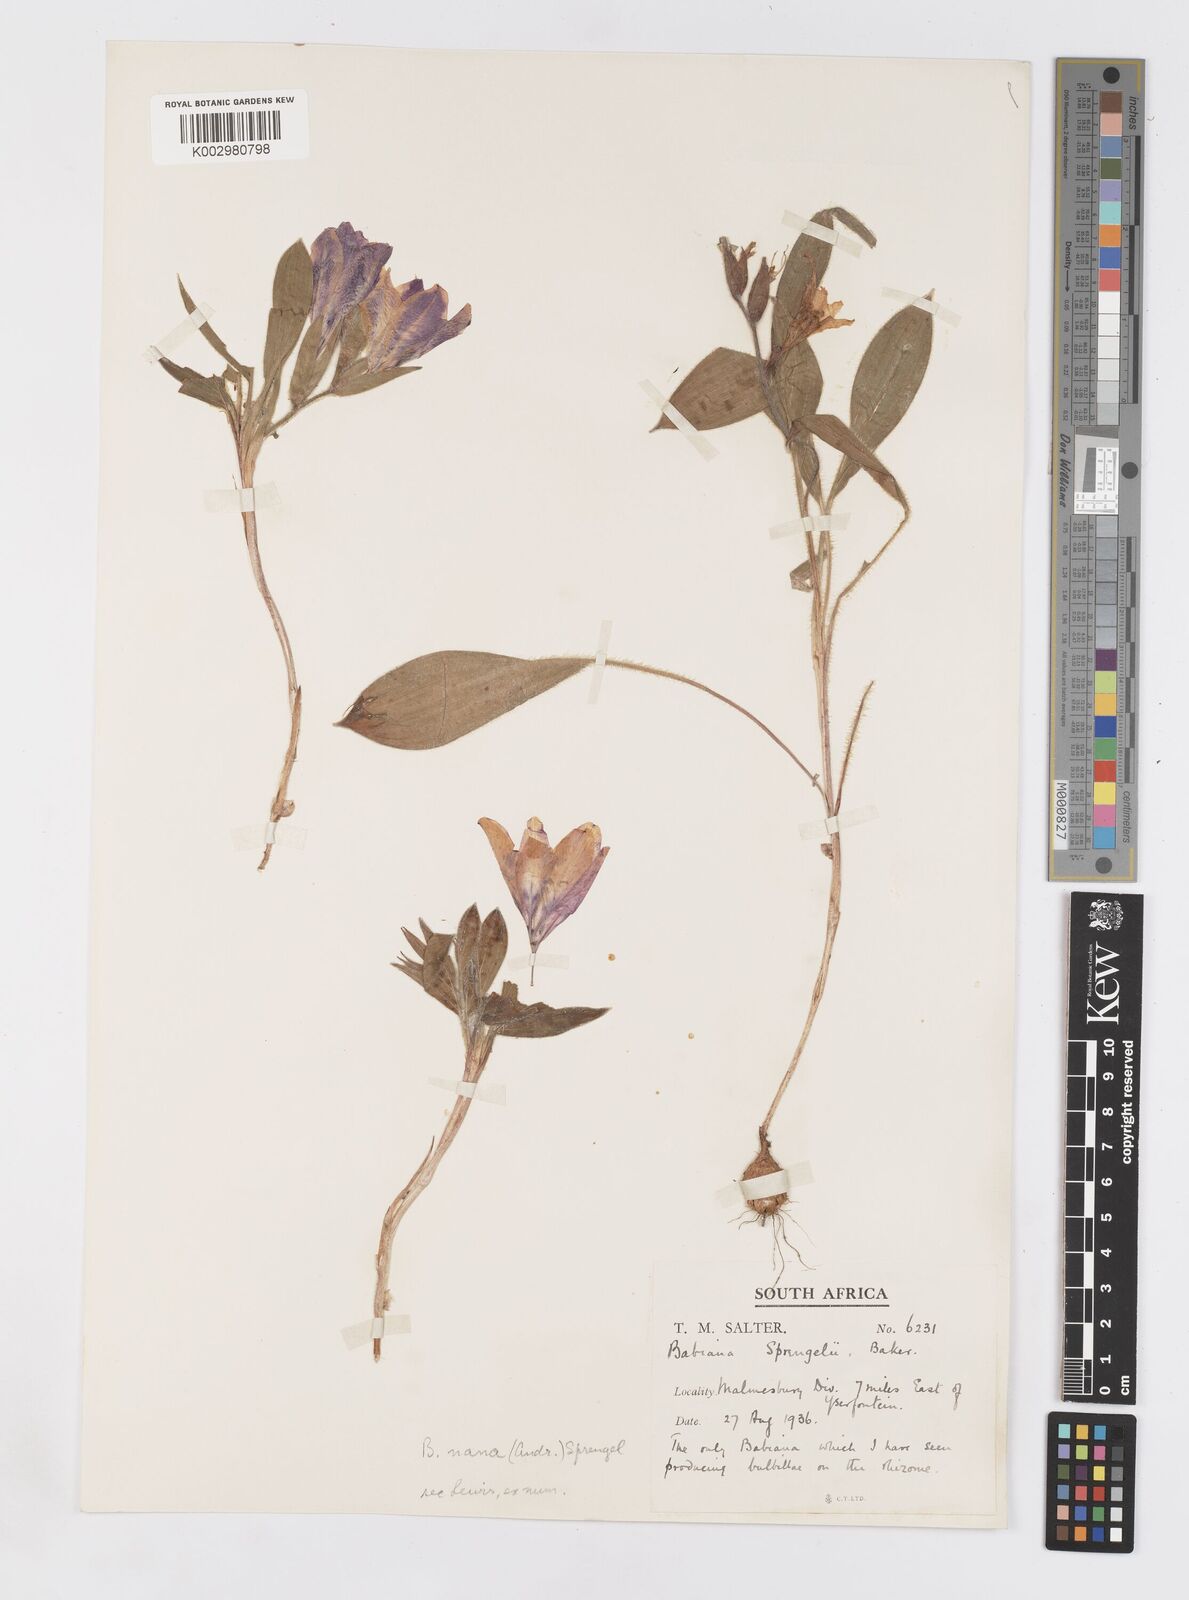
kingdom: Plantae
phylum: Tracheophyta
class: Liliopsida
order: Asparagales
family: Iridaceae
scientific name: Iridaceae
